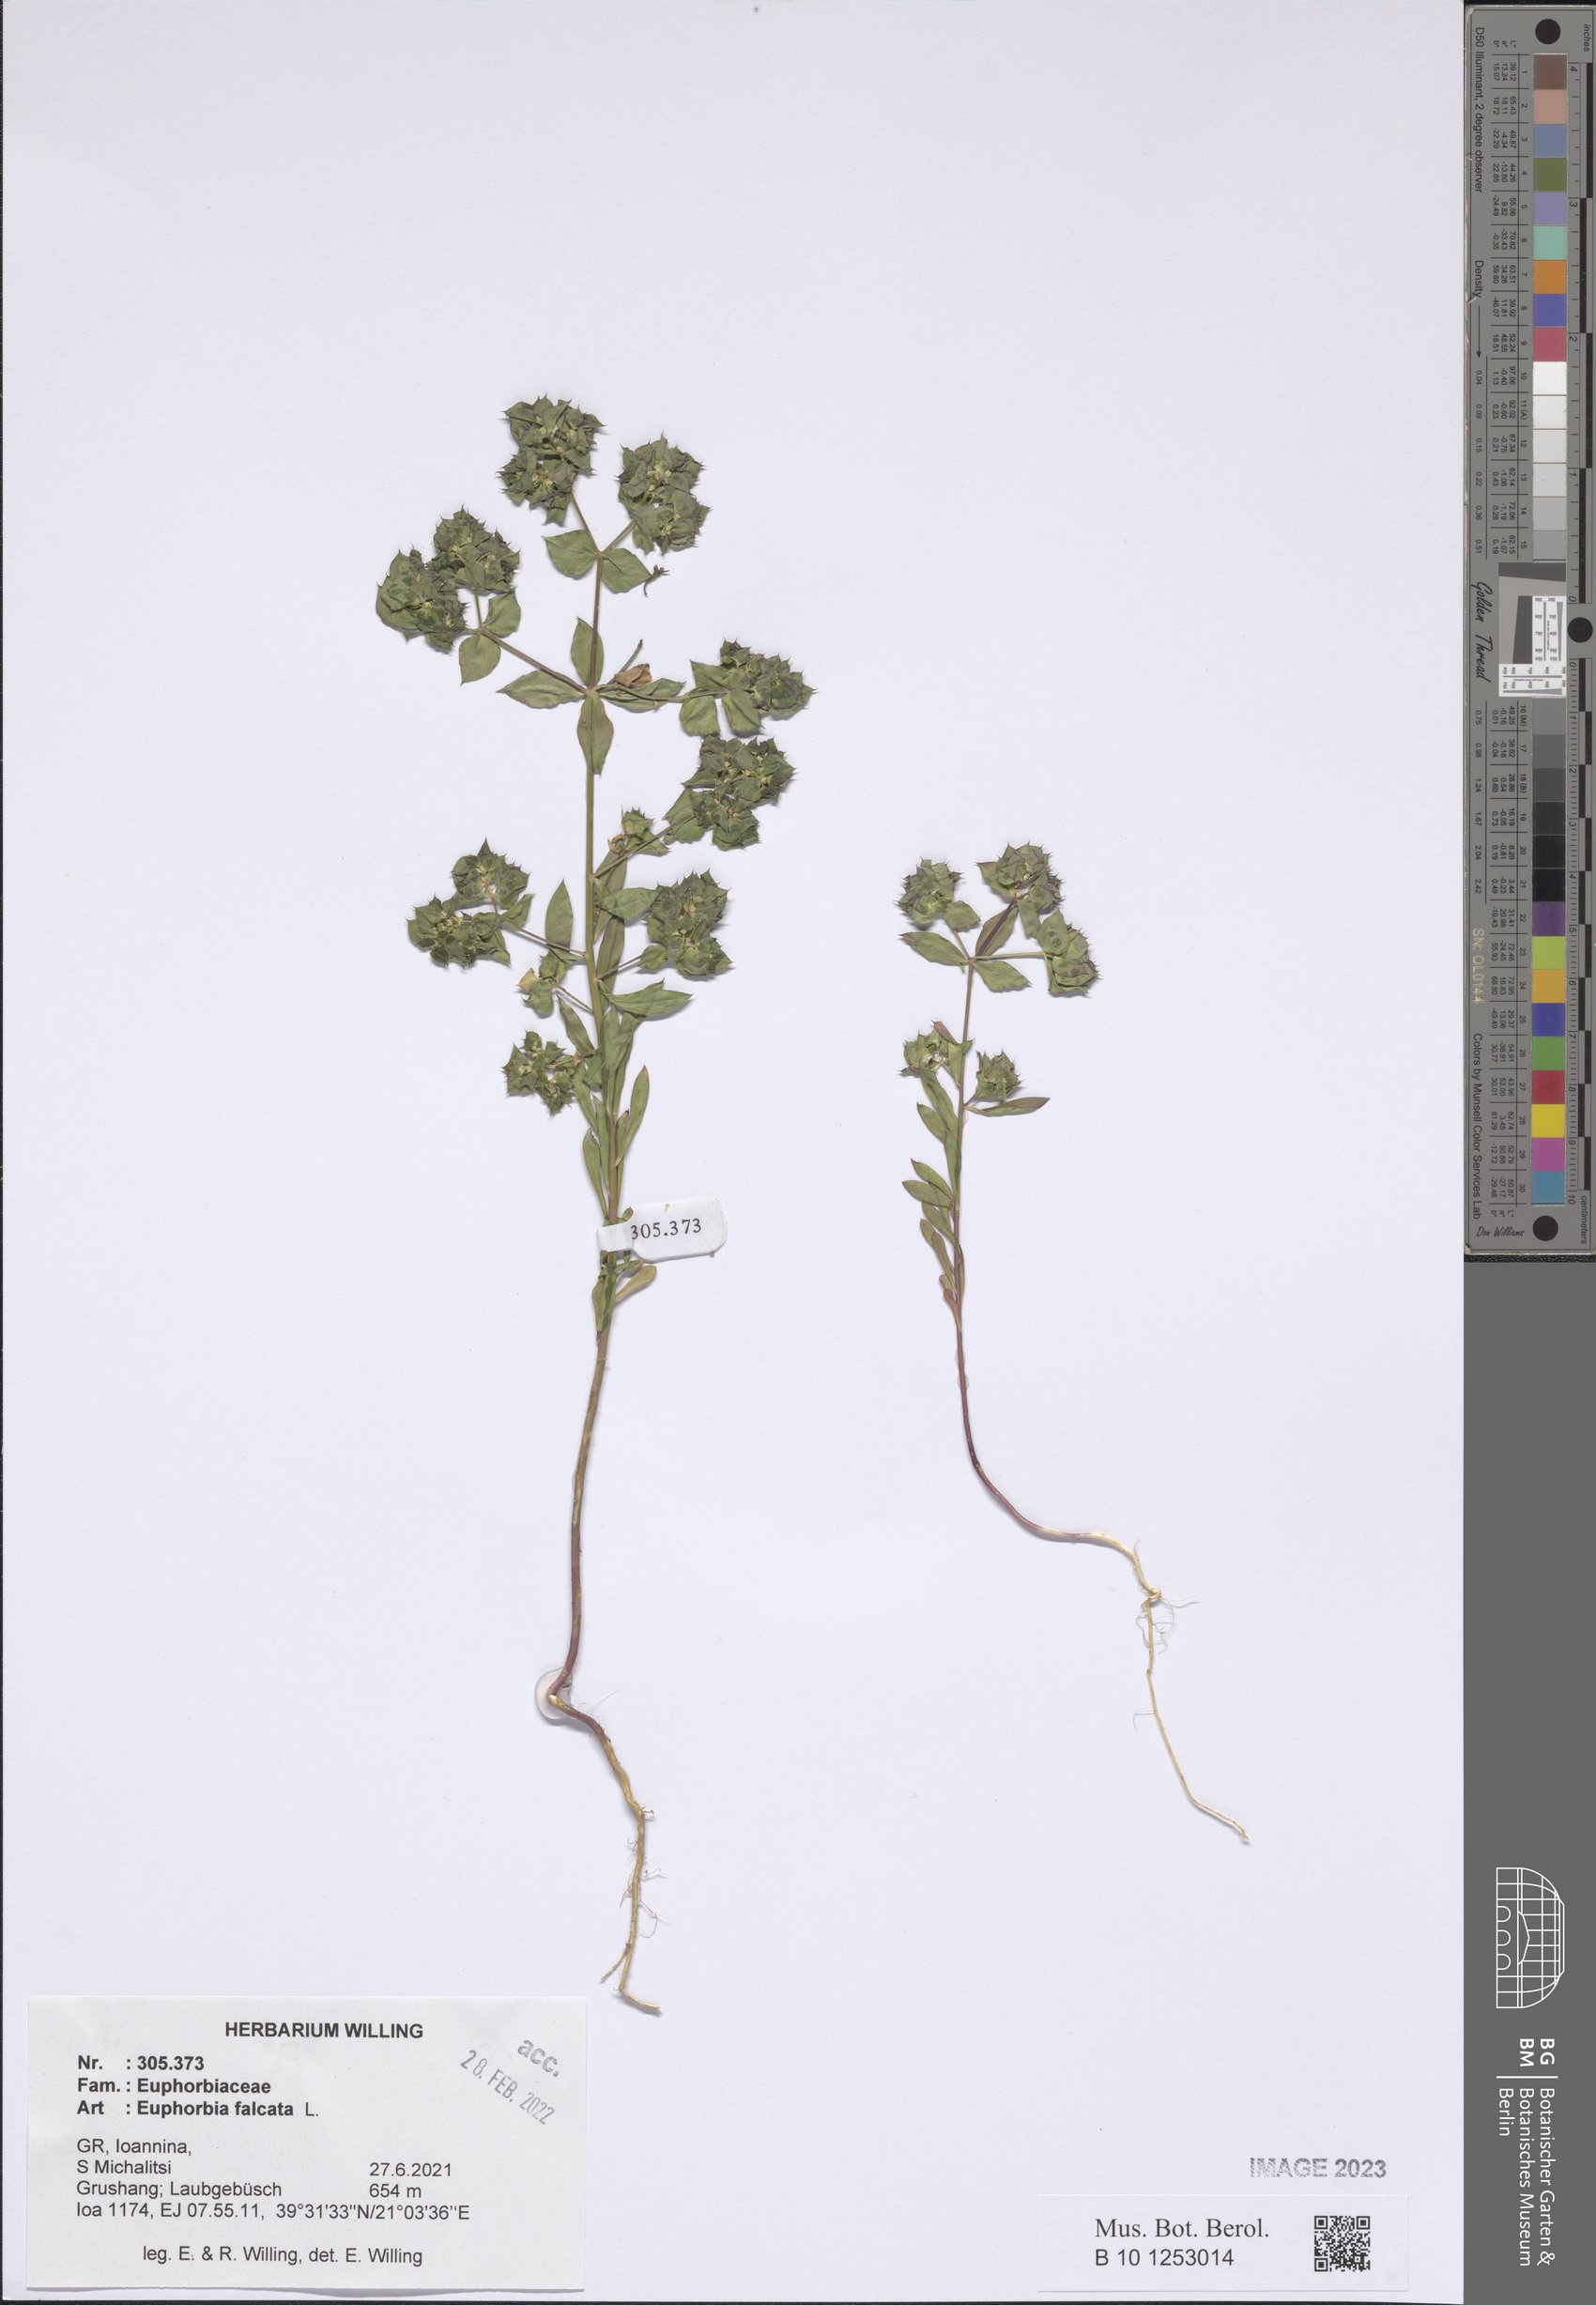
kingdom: Plantae
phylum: Tracheophyta
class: Magnoliopsida
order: Malpighiales
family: Euphorbiaceae
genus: Euphorbia
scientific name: Euphorbia falcata
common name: Sickle spurge
